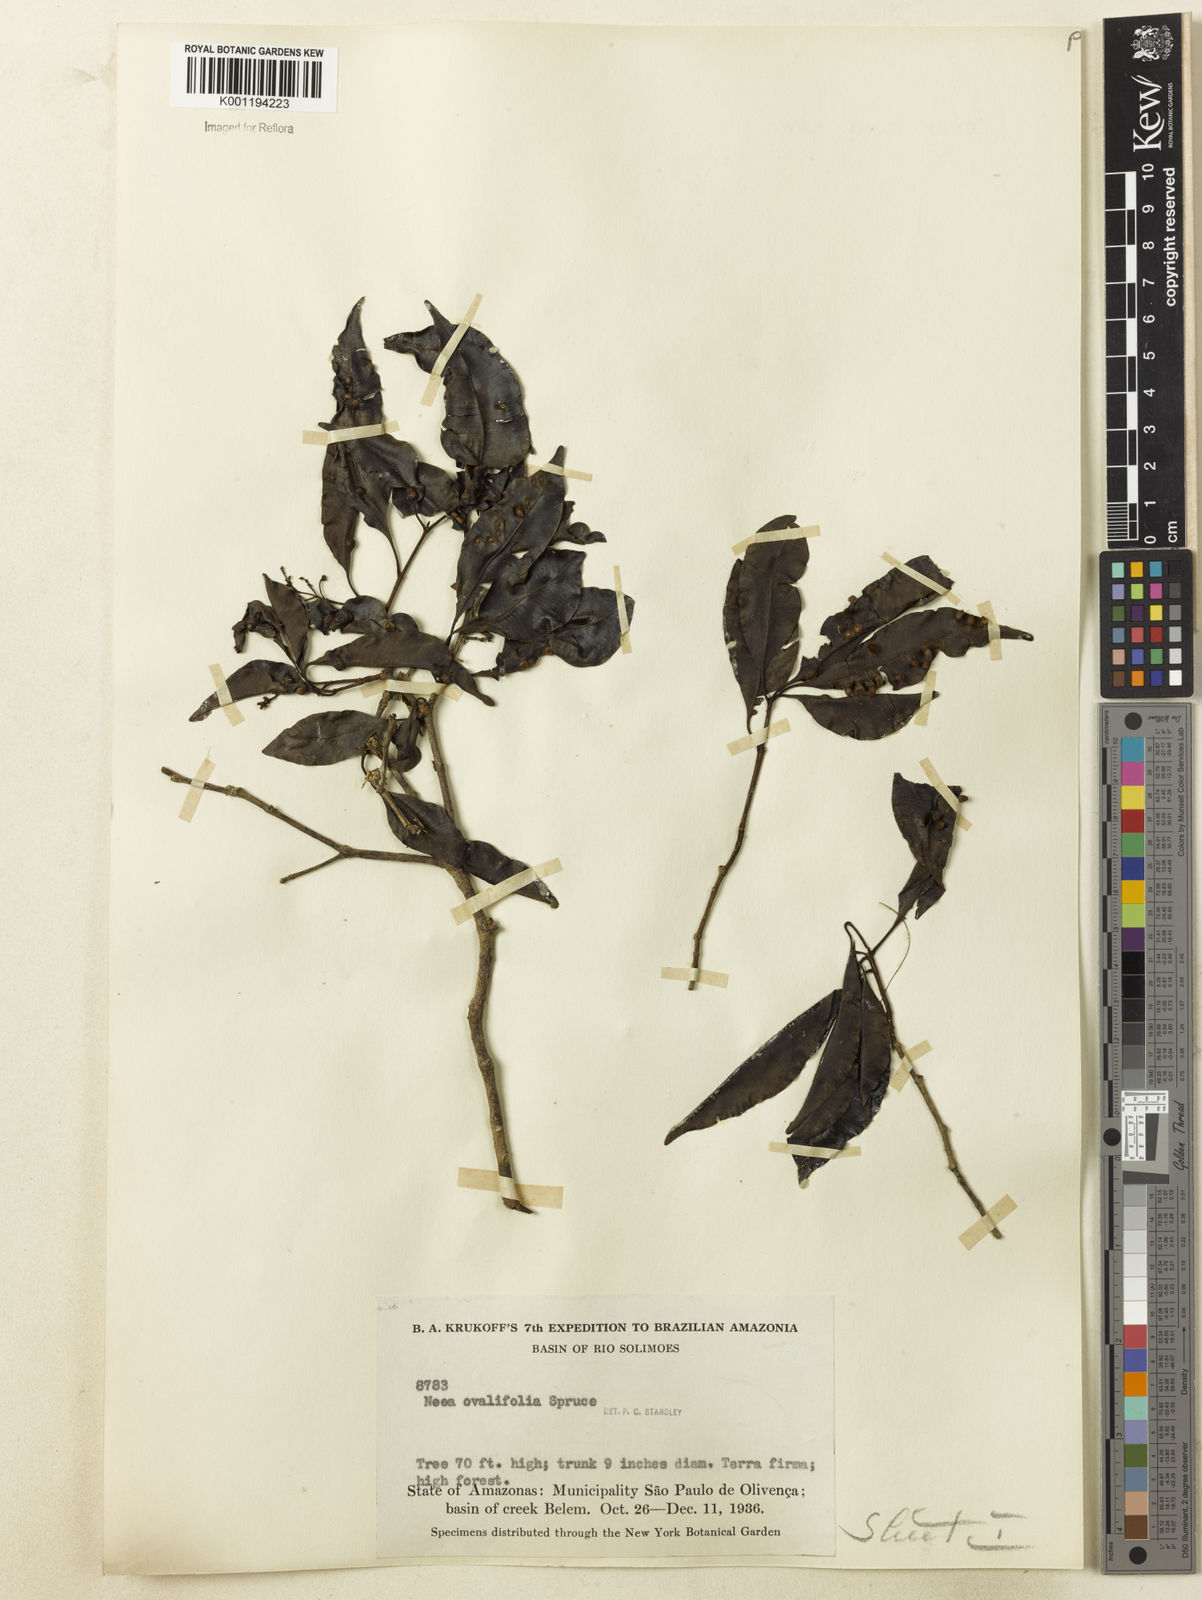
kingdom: Plantae
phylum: Tracheophyta
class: Magnoliopsida
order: Caryophyllales
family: Nyctaginaceae
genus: Neea
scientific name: Neea ovalifolia
